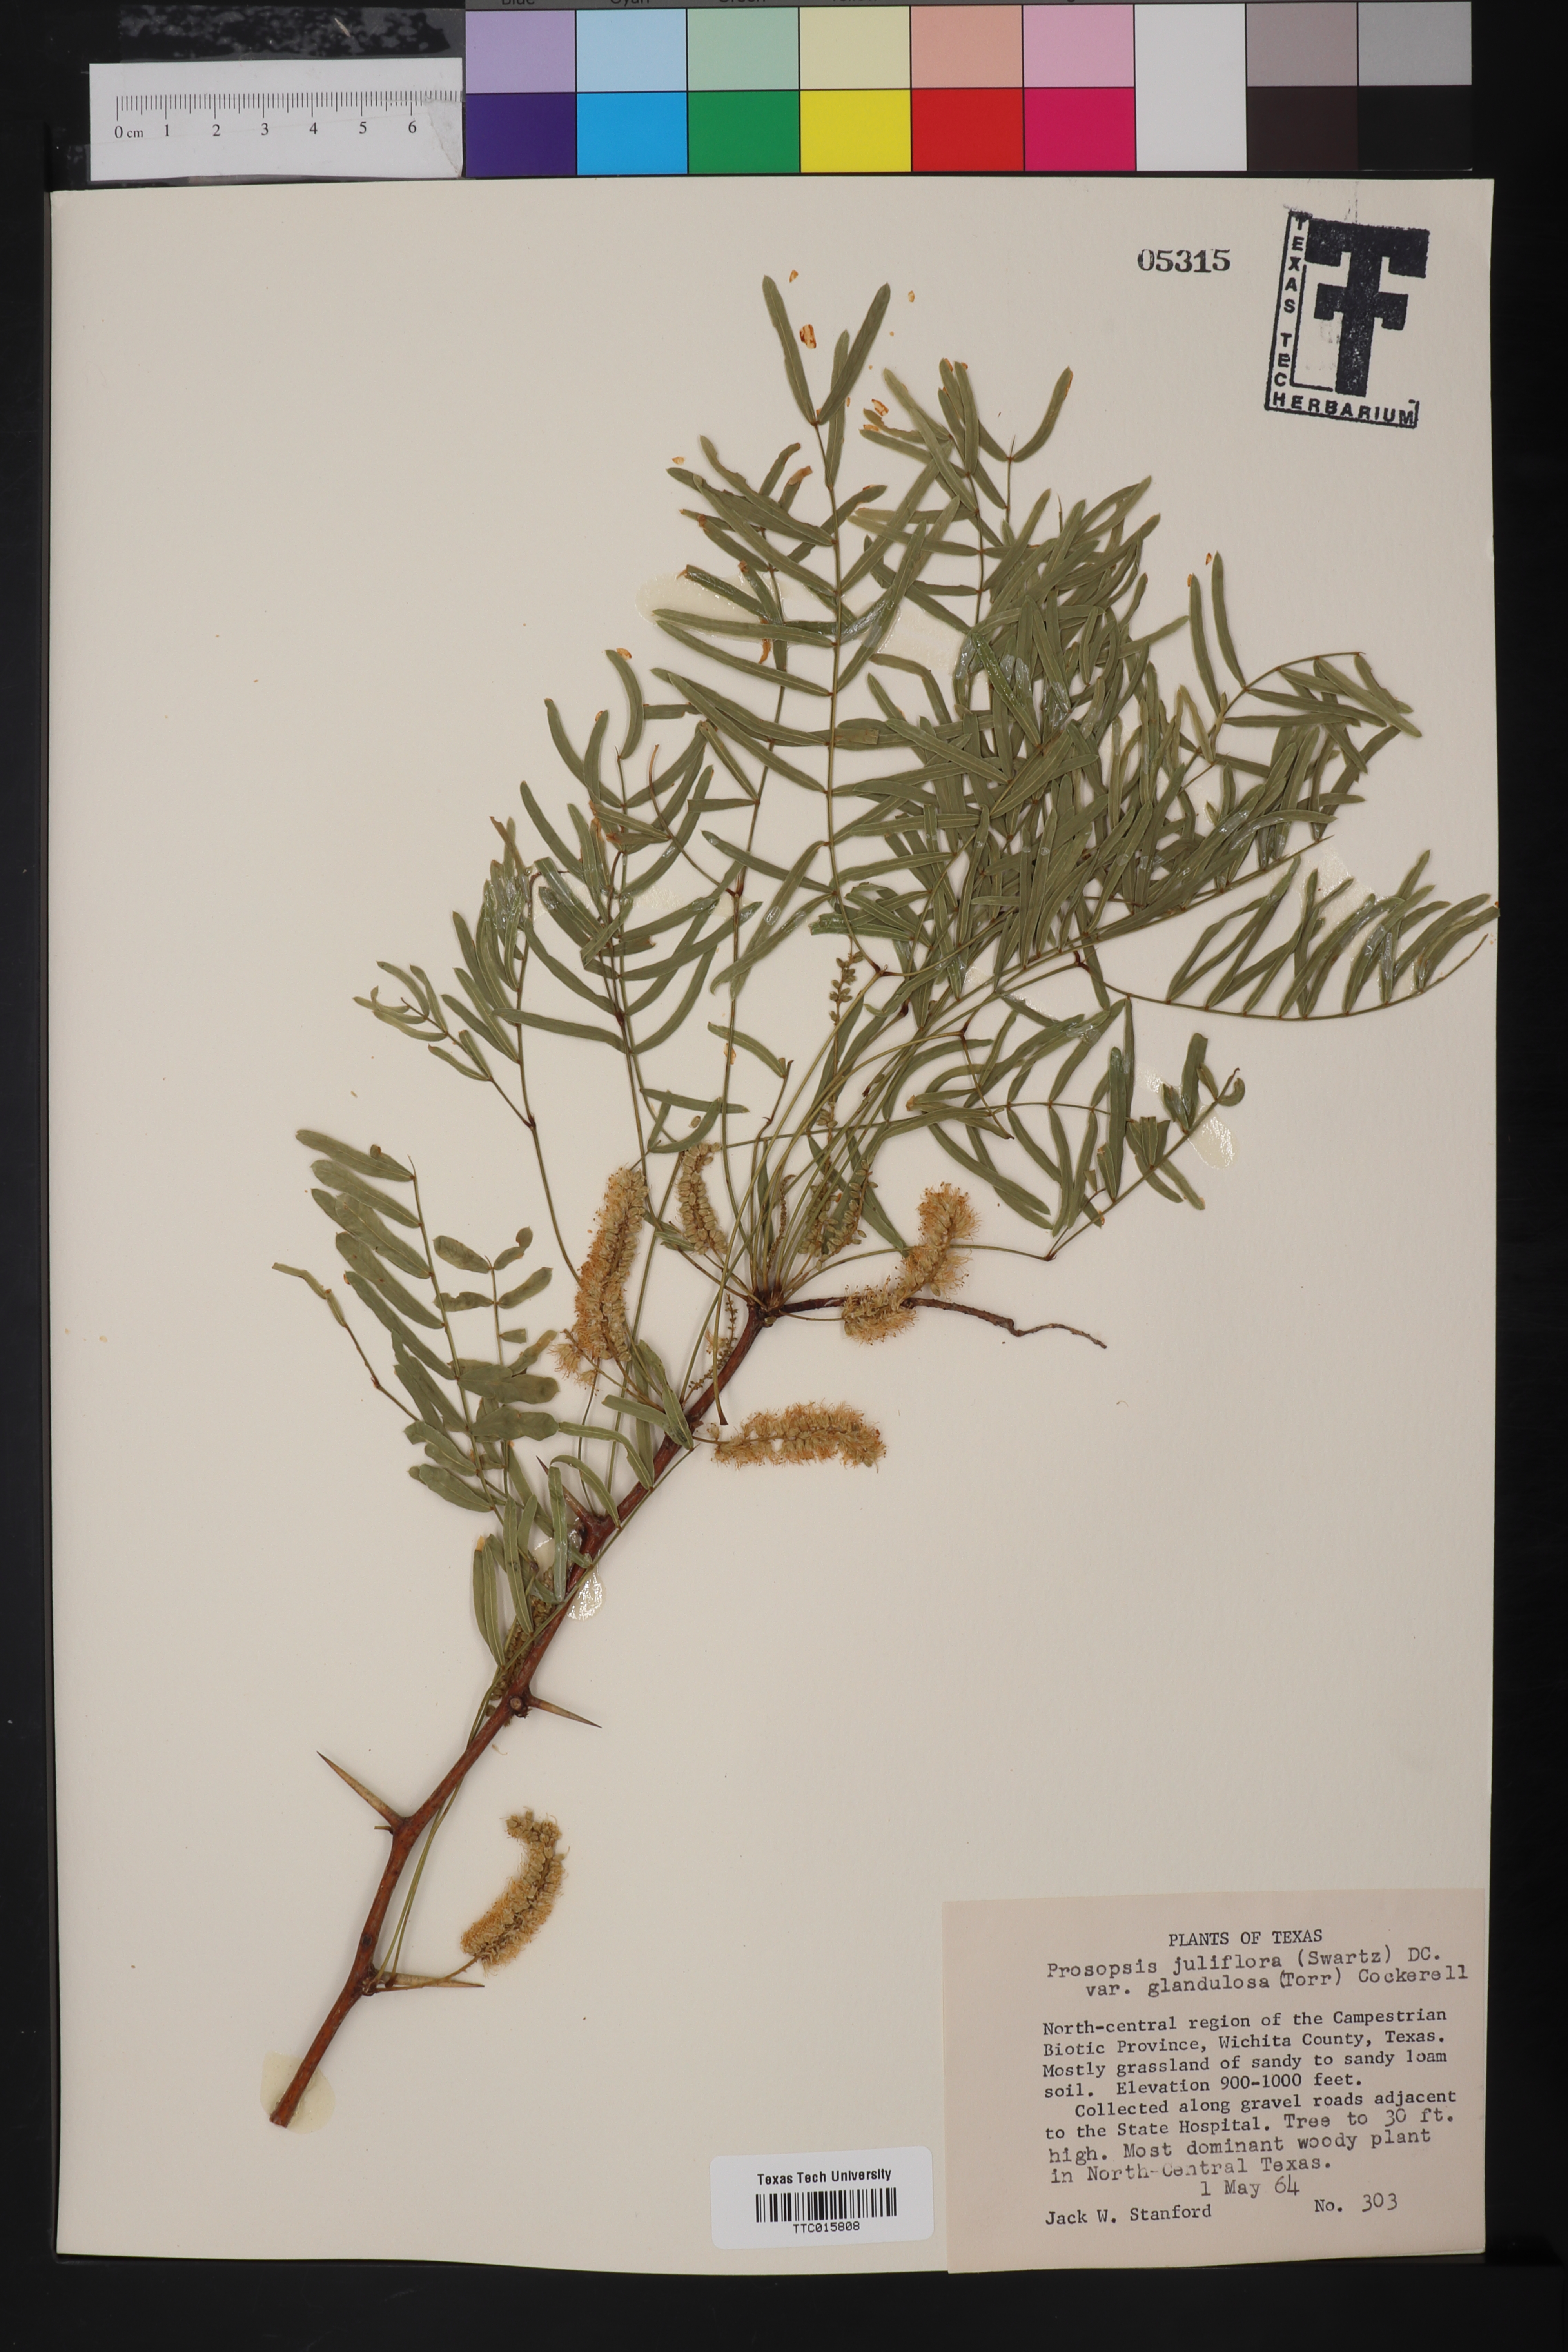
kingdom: Plantae
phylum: Tracheophyta
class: Magnoliopsida
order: Fabales
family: Fabaceae
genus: Prosopis
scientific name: Prosopis glandulosa
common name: Honey mesquite
